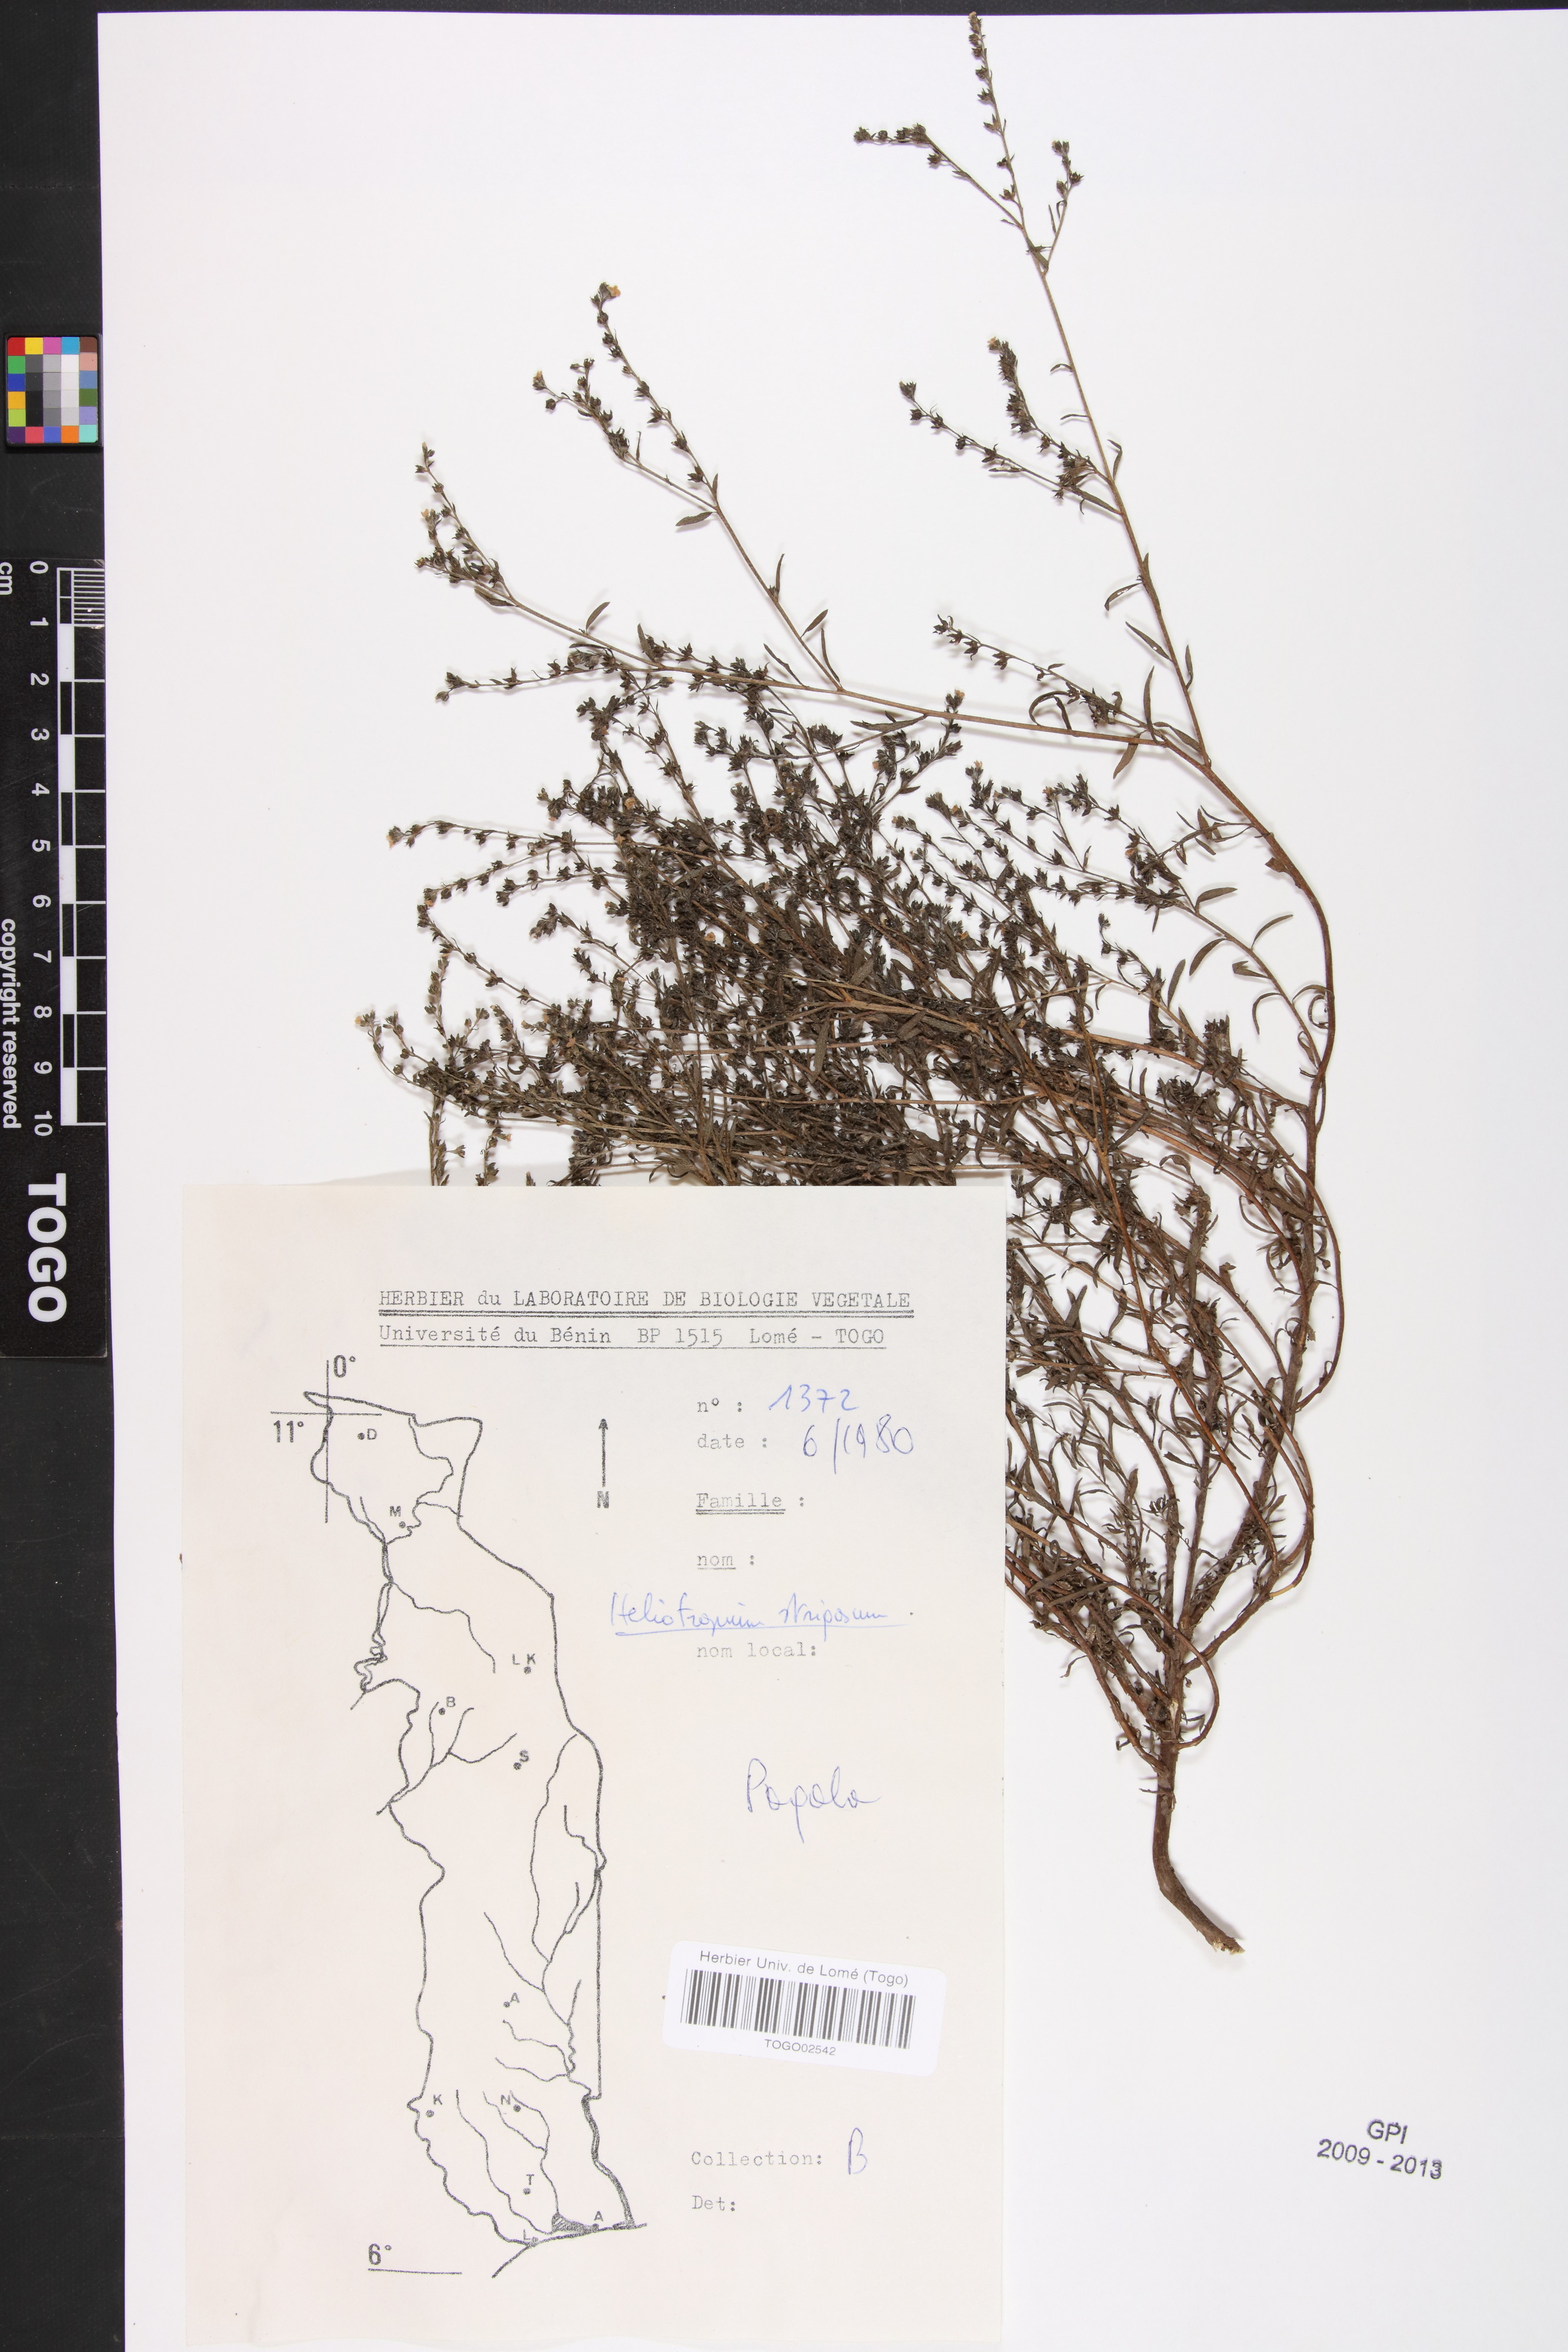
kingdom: Plantae
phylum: Tracheophyta
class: Magnoliopsida
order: Boraginales
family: Heliotropiaceae
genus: Euploca
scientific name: Euploca strigosa
